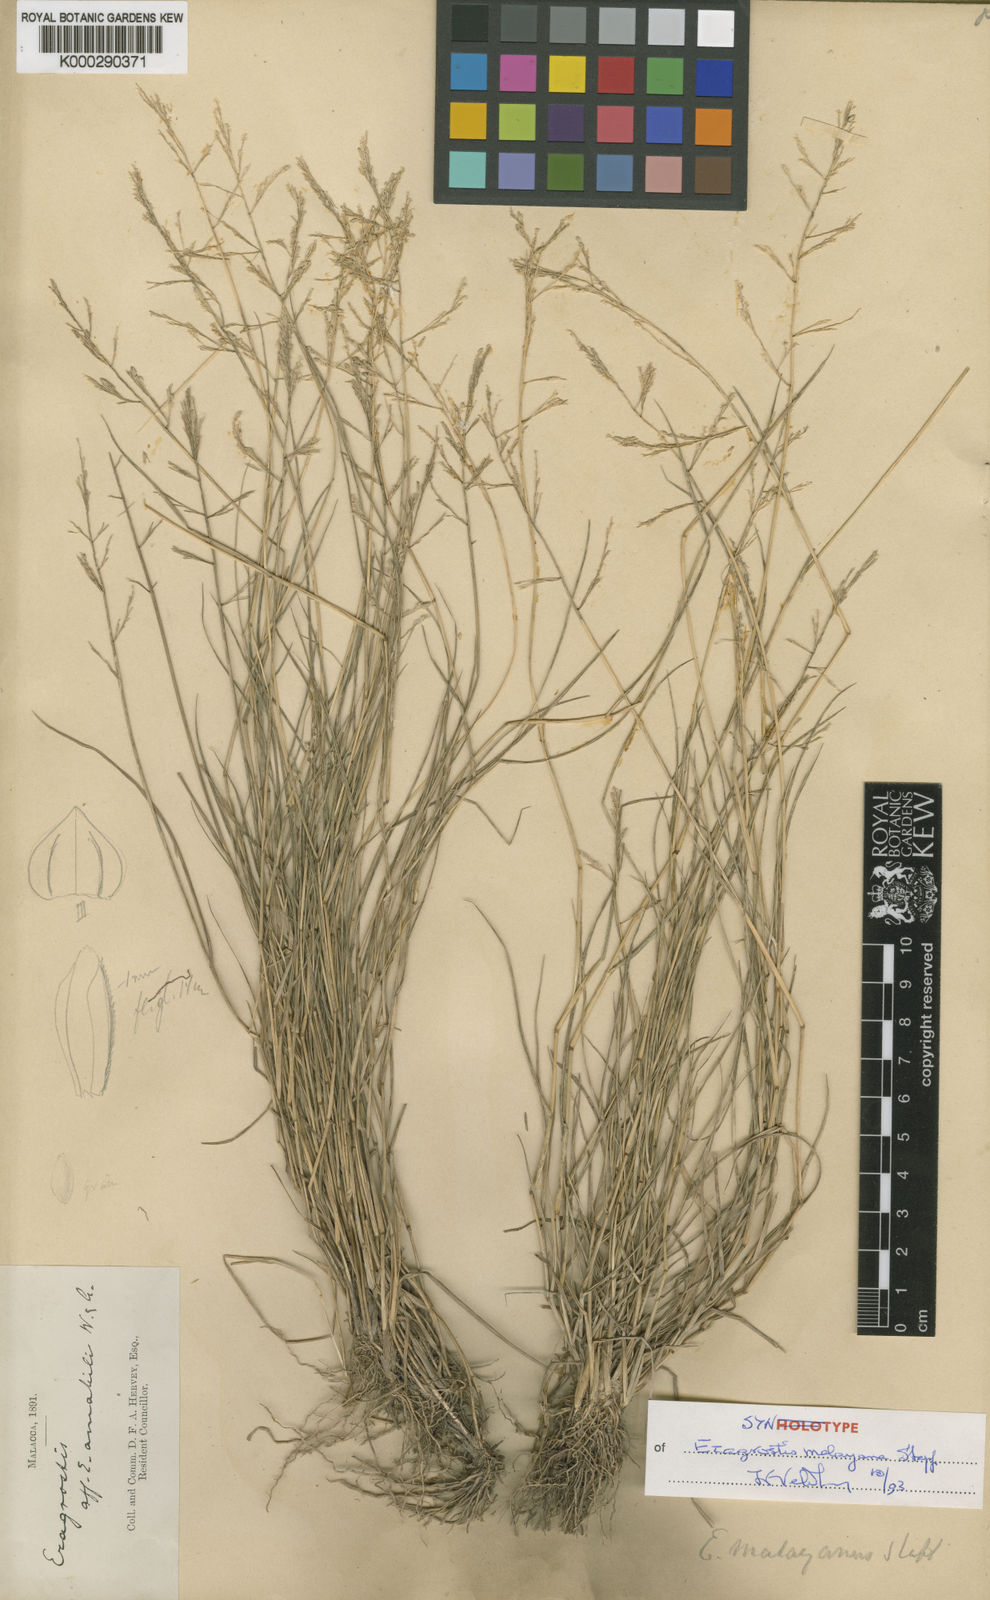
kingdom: Plantae
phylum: Tracheophyta
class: Liliopsida
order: Poales
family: Poaceae
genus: Eragrostis
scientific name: Eragrostis montana
